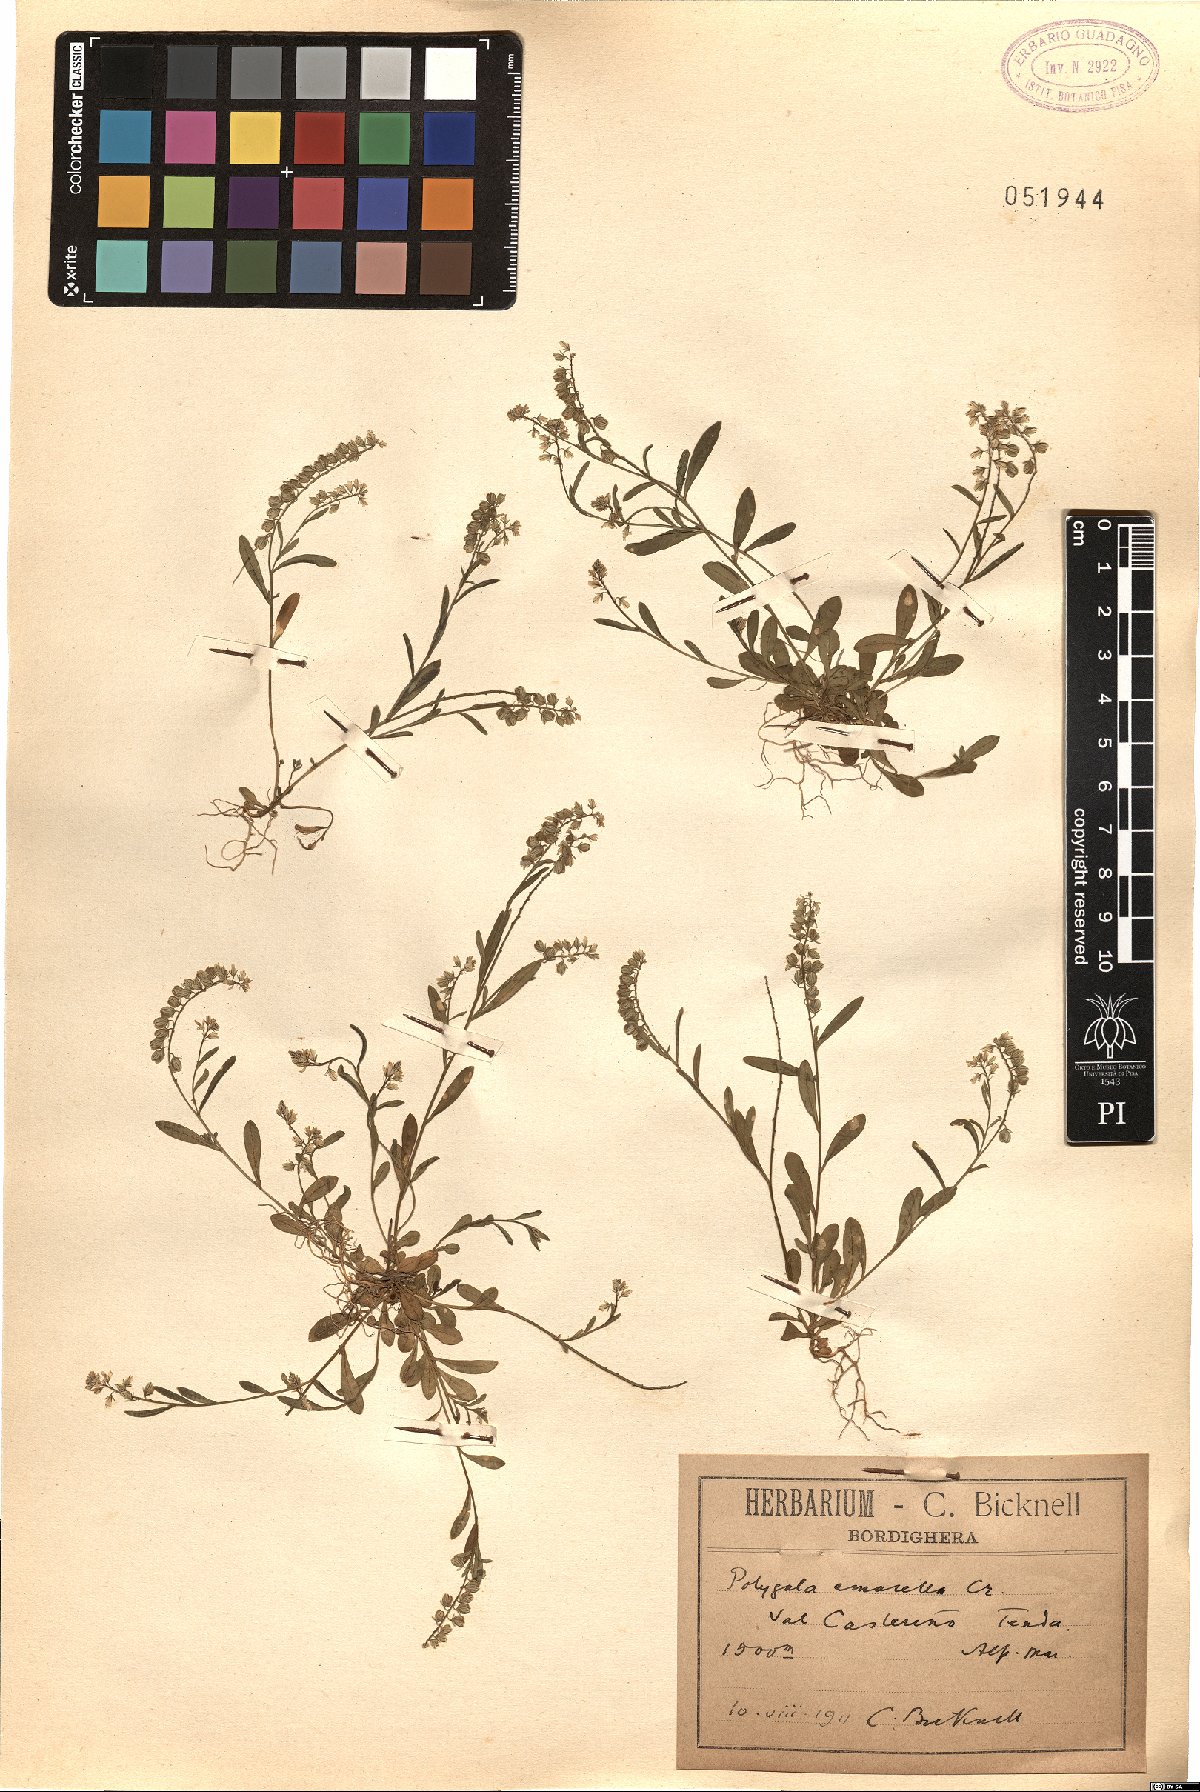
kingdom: Plantae
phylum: Tracheophyta
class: Magnoliopsida
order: Fabales
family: Polygalaceae
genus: Polygala
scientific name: Polygala amarella
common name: Dwarf milkwort
